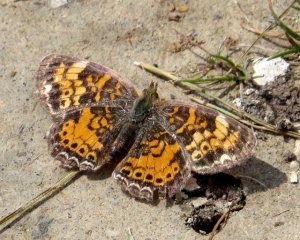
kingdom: Animalia
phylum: Arthropoda
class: Insecta
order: Lepidoptera
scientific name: Lepidoptera
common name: Butterflies
